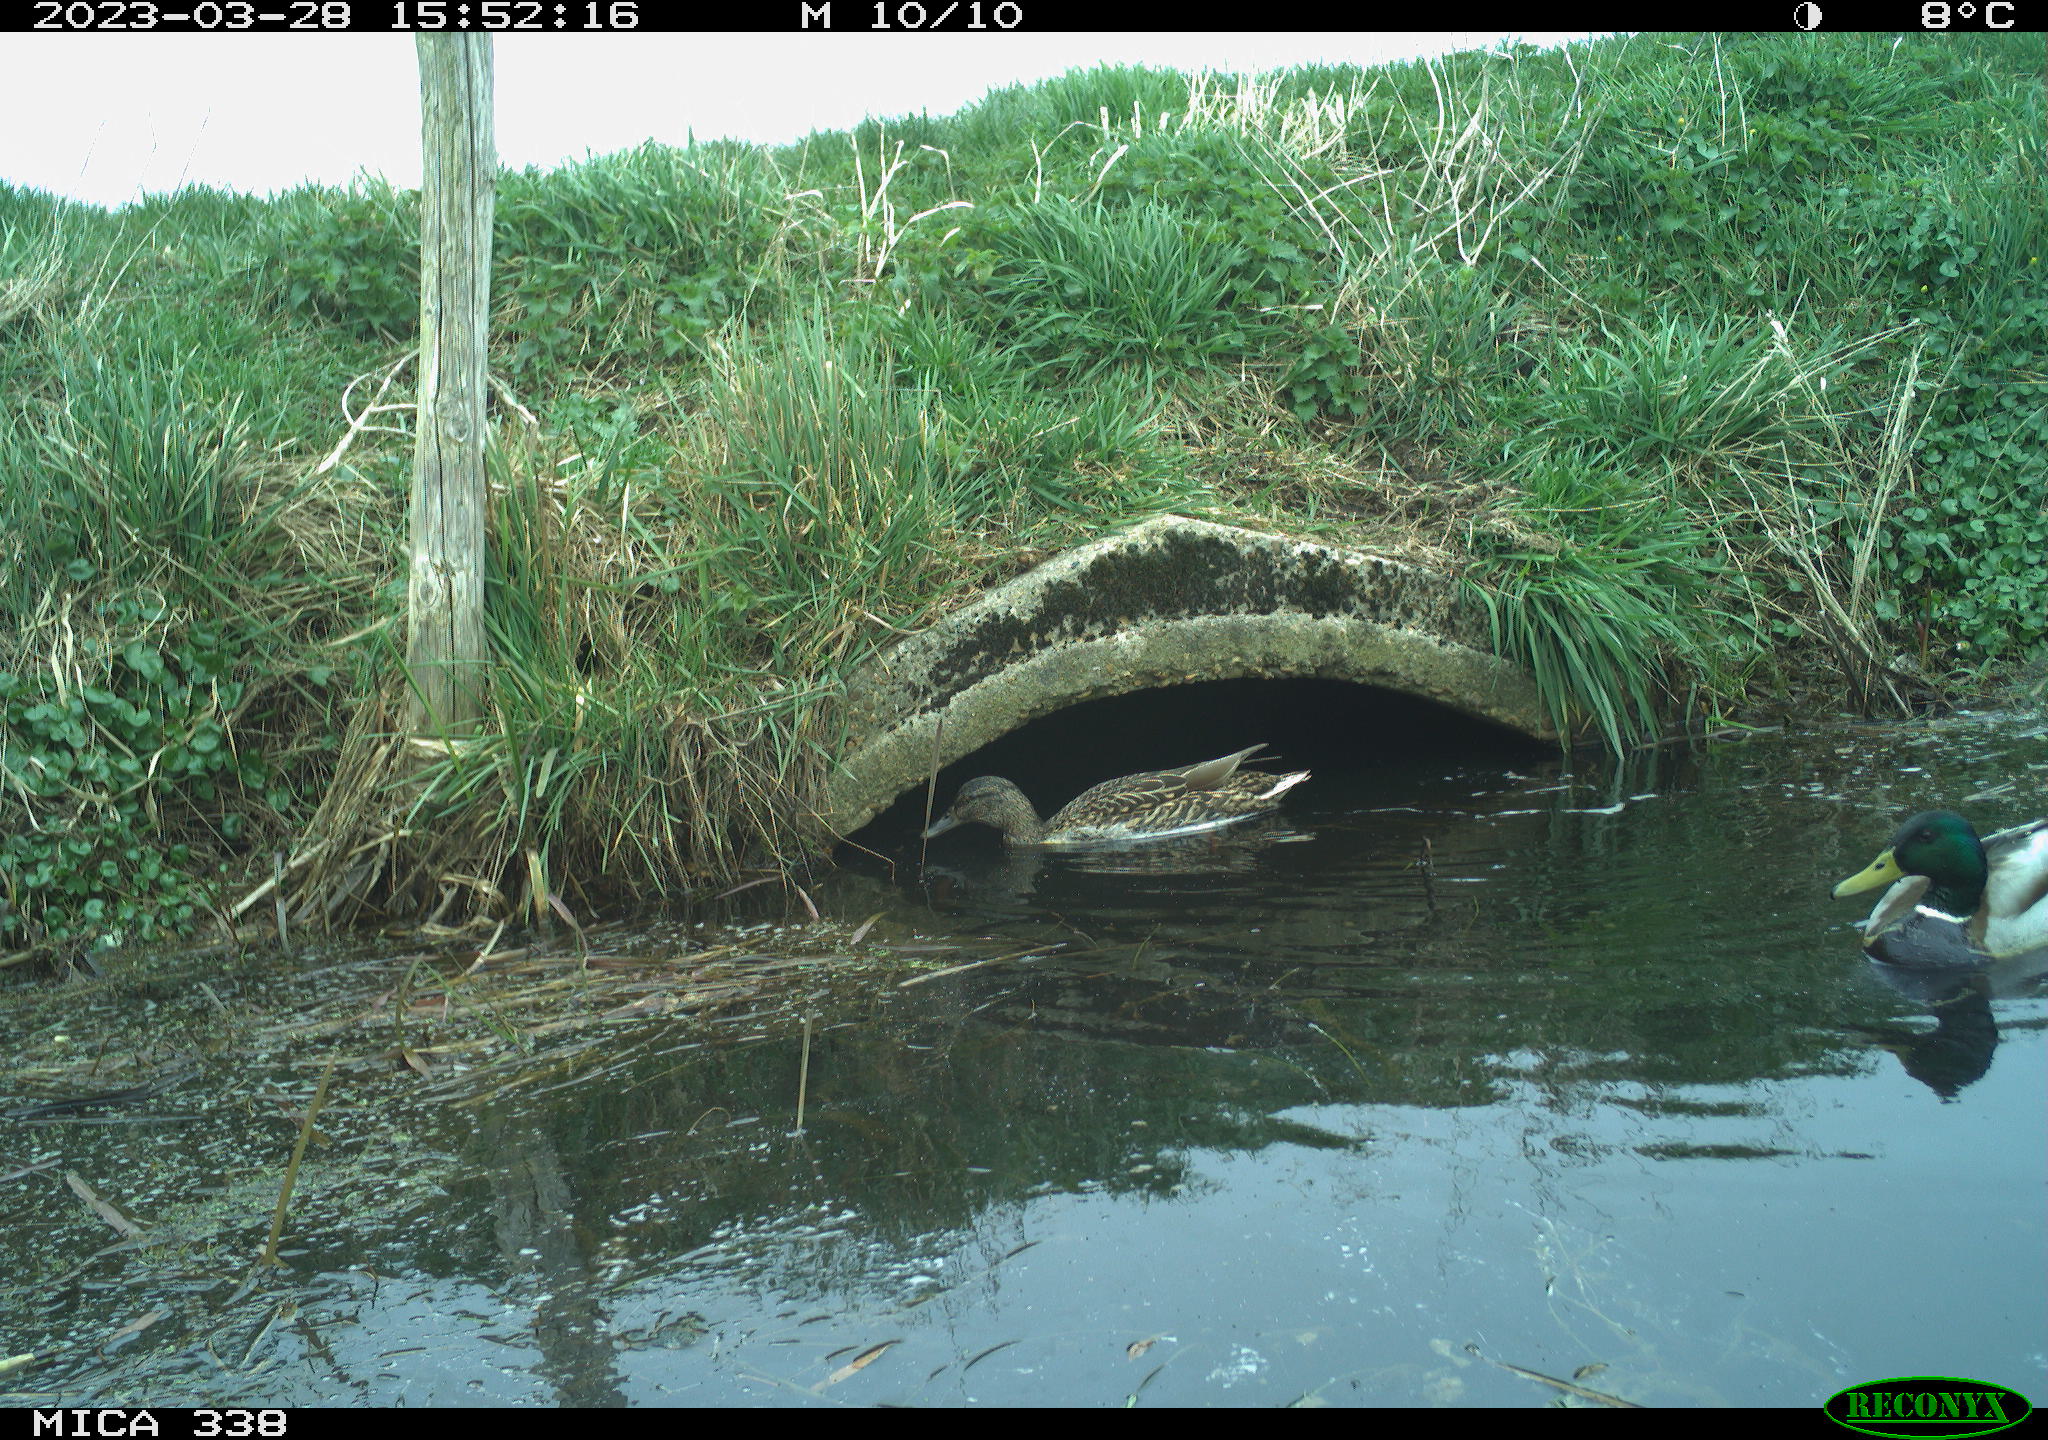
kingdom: Animalia
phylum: Chordata
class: Aves
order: Anseriformes
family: Anatidae
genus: Anas
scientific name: Anas
